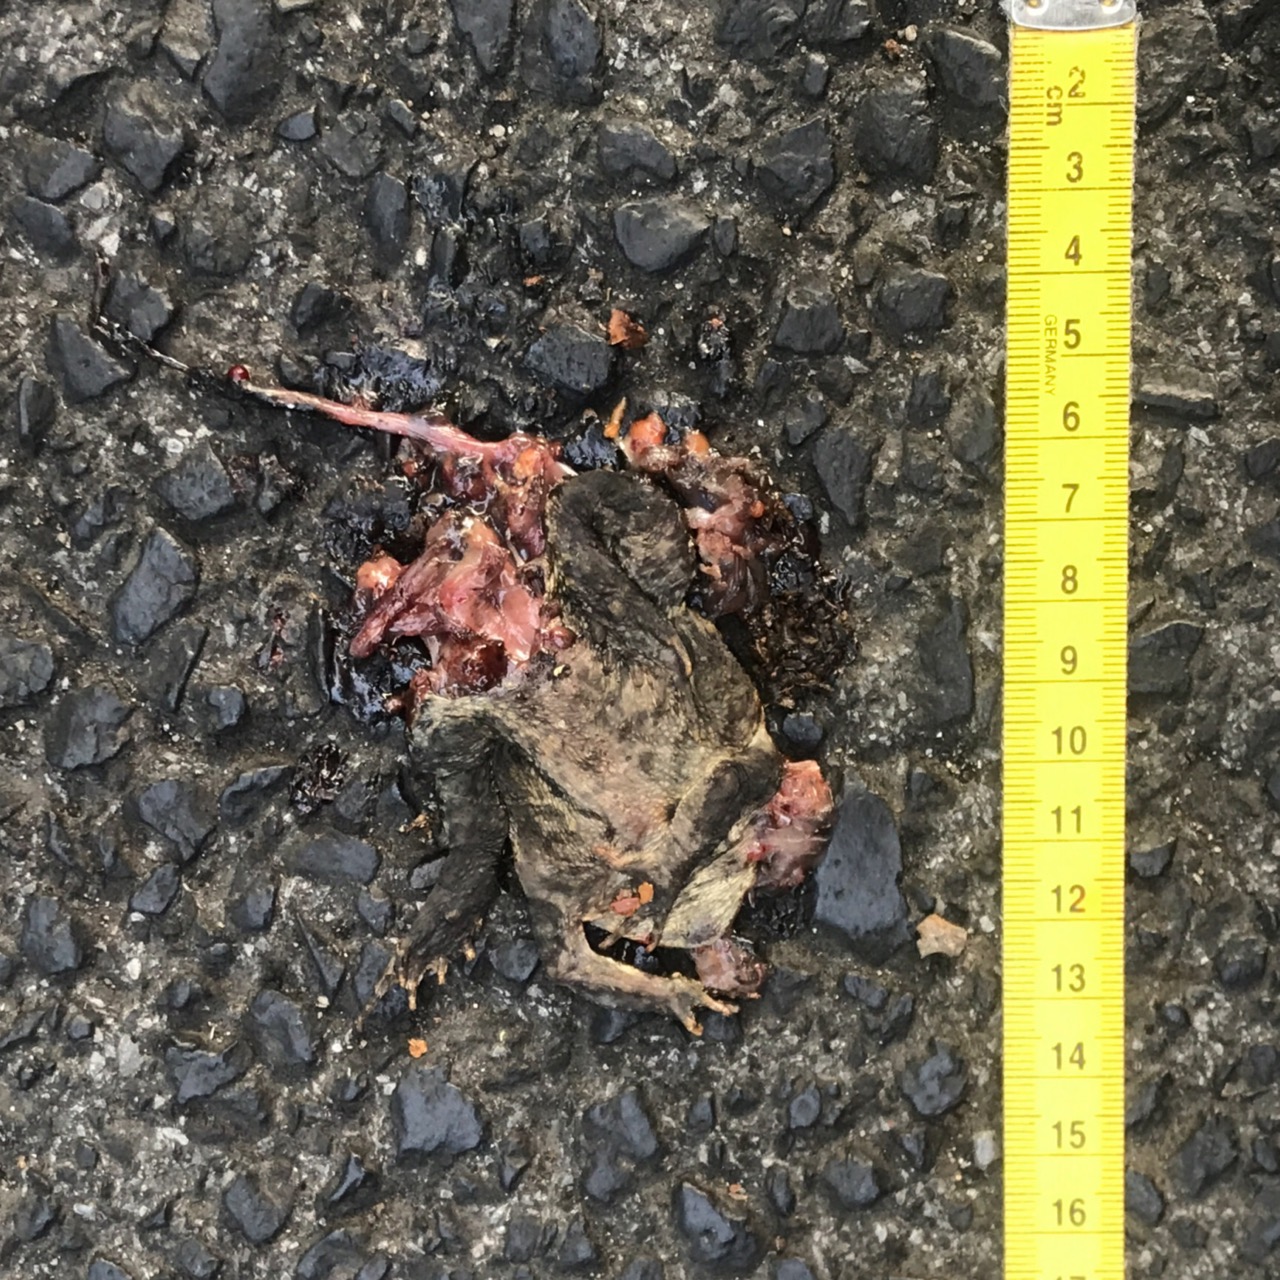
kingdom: Animalia
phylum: Chordata
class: Amphibia
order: Anura
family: Bufonidae
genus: Bufo
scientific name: Bufo bufo
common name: Common toad
